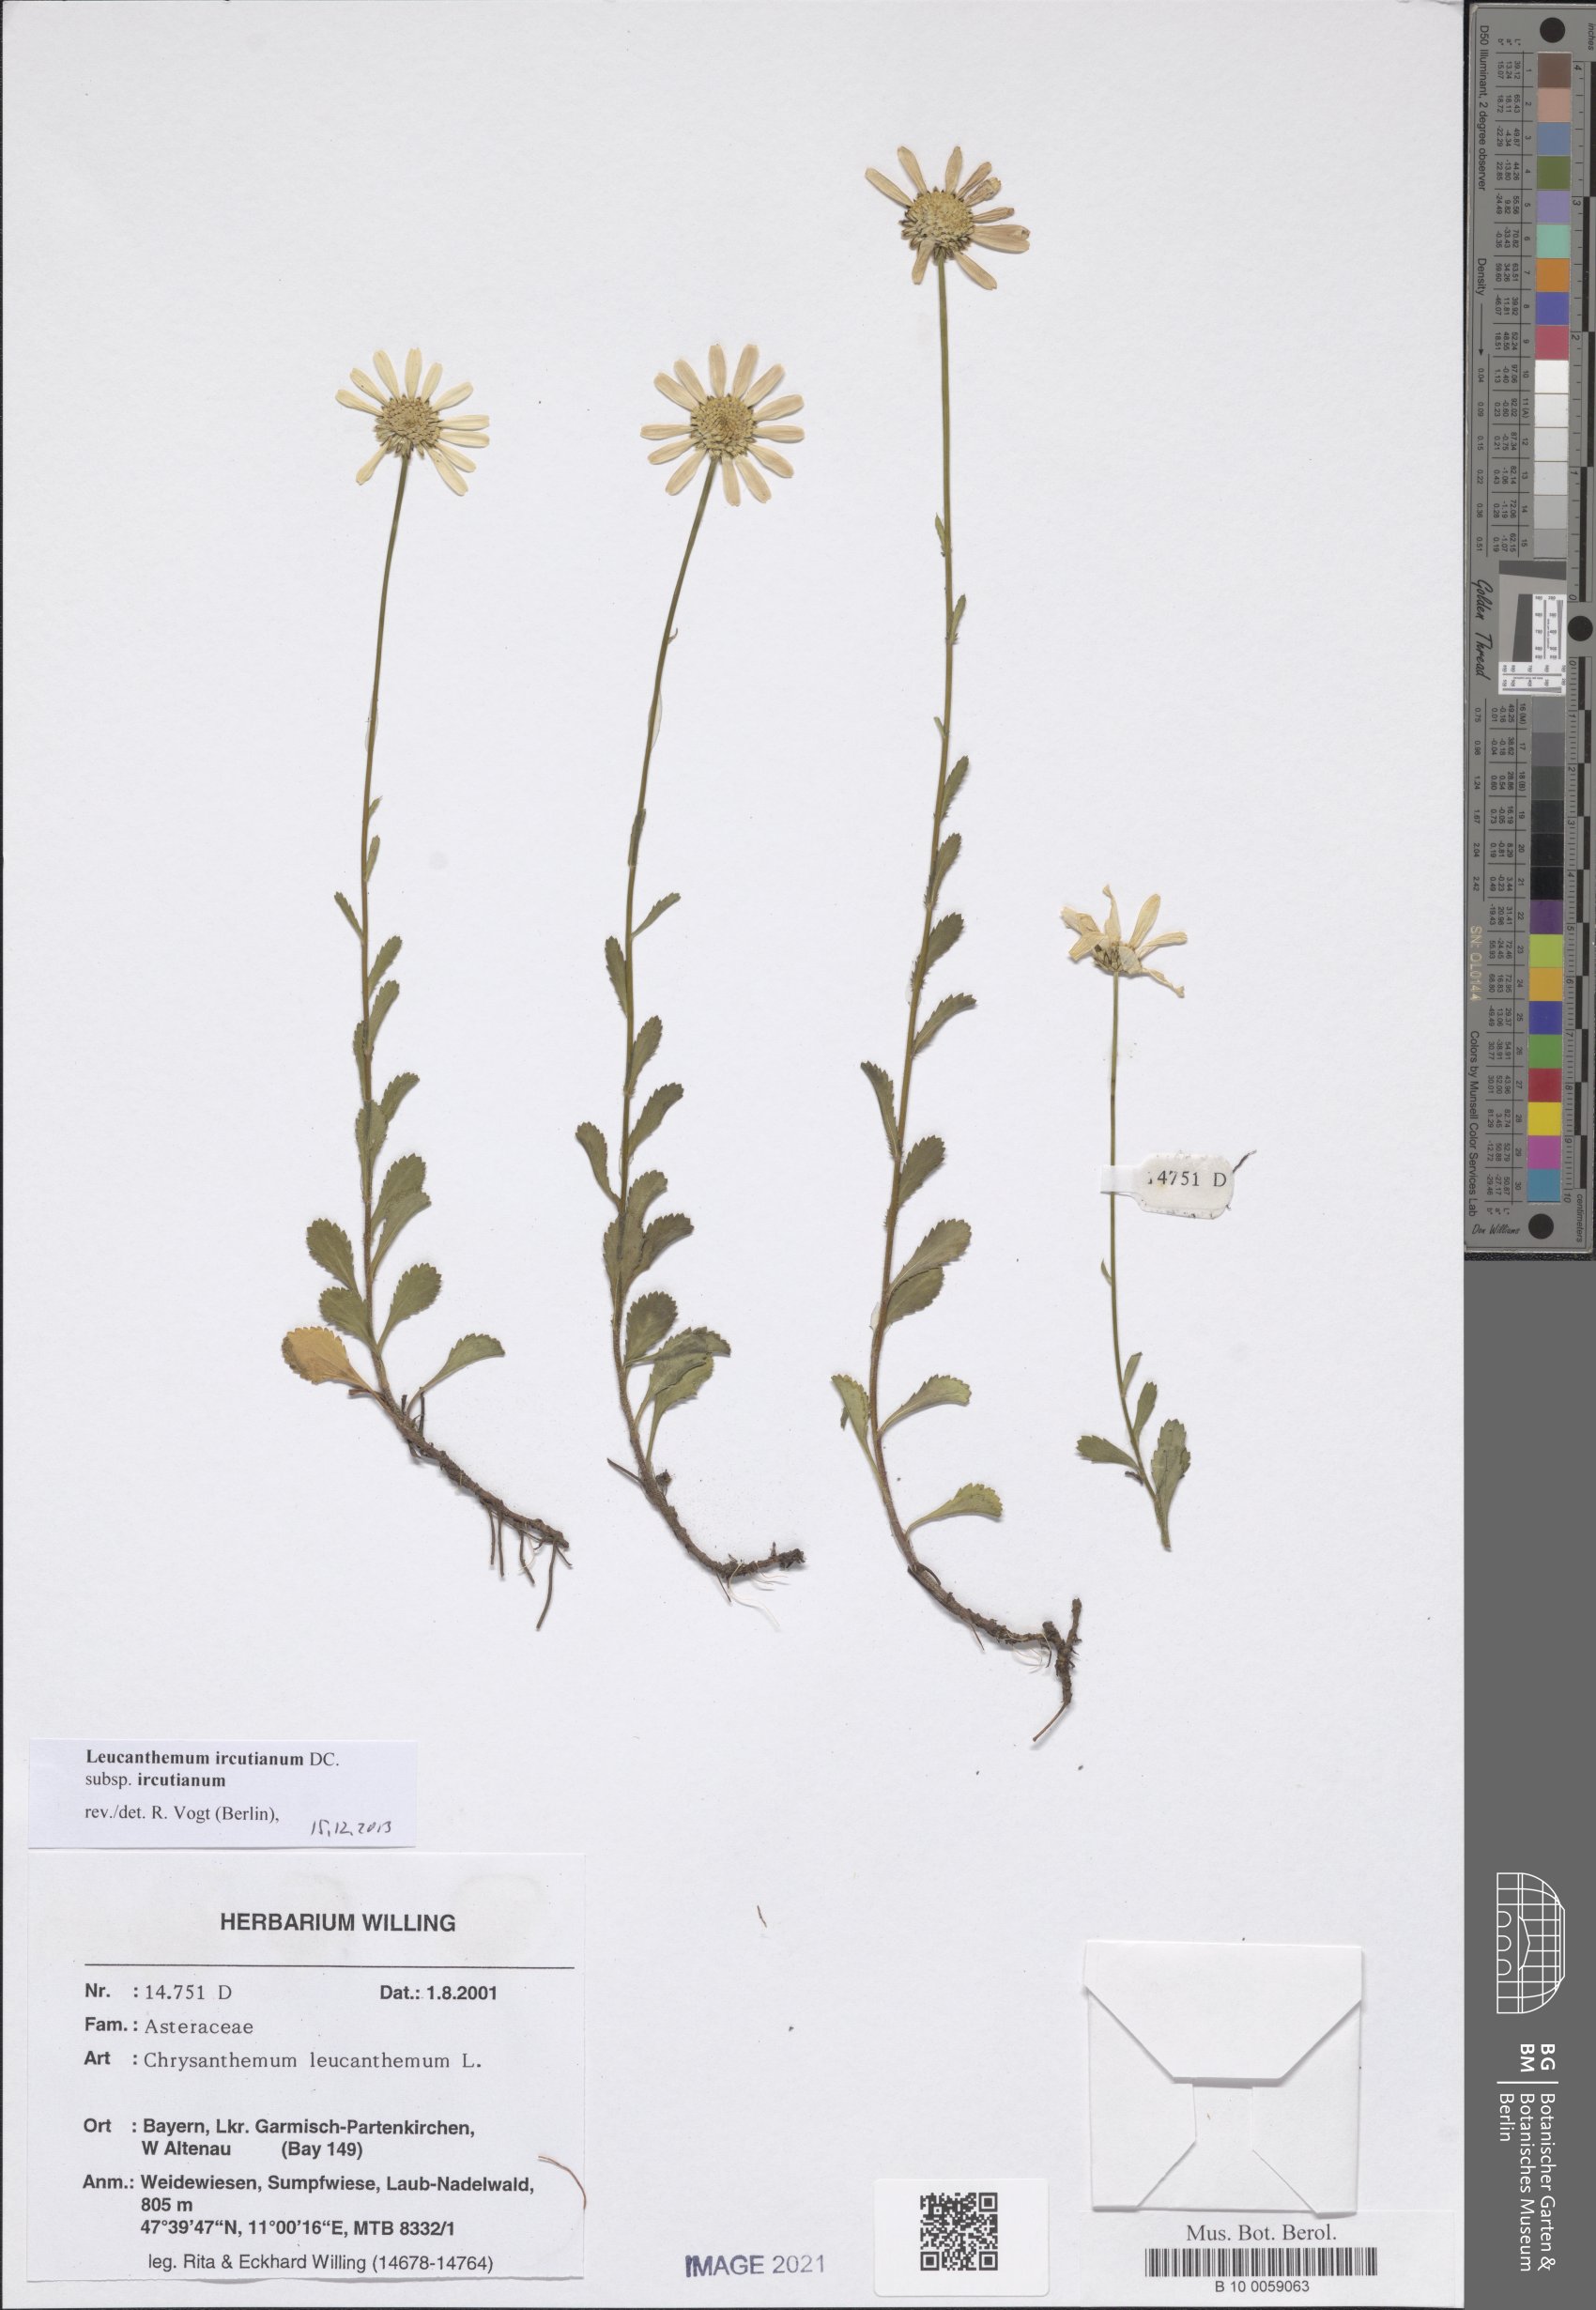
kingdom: Plantae
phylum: Tracheophyta
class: Magnoliopsida
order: Asterales
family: Asteraceae
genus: Leucanthemum
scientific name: Leucanthemum ircutianum
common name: Daisy
